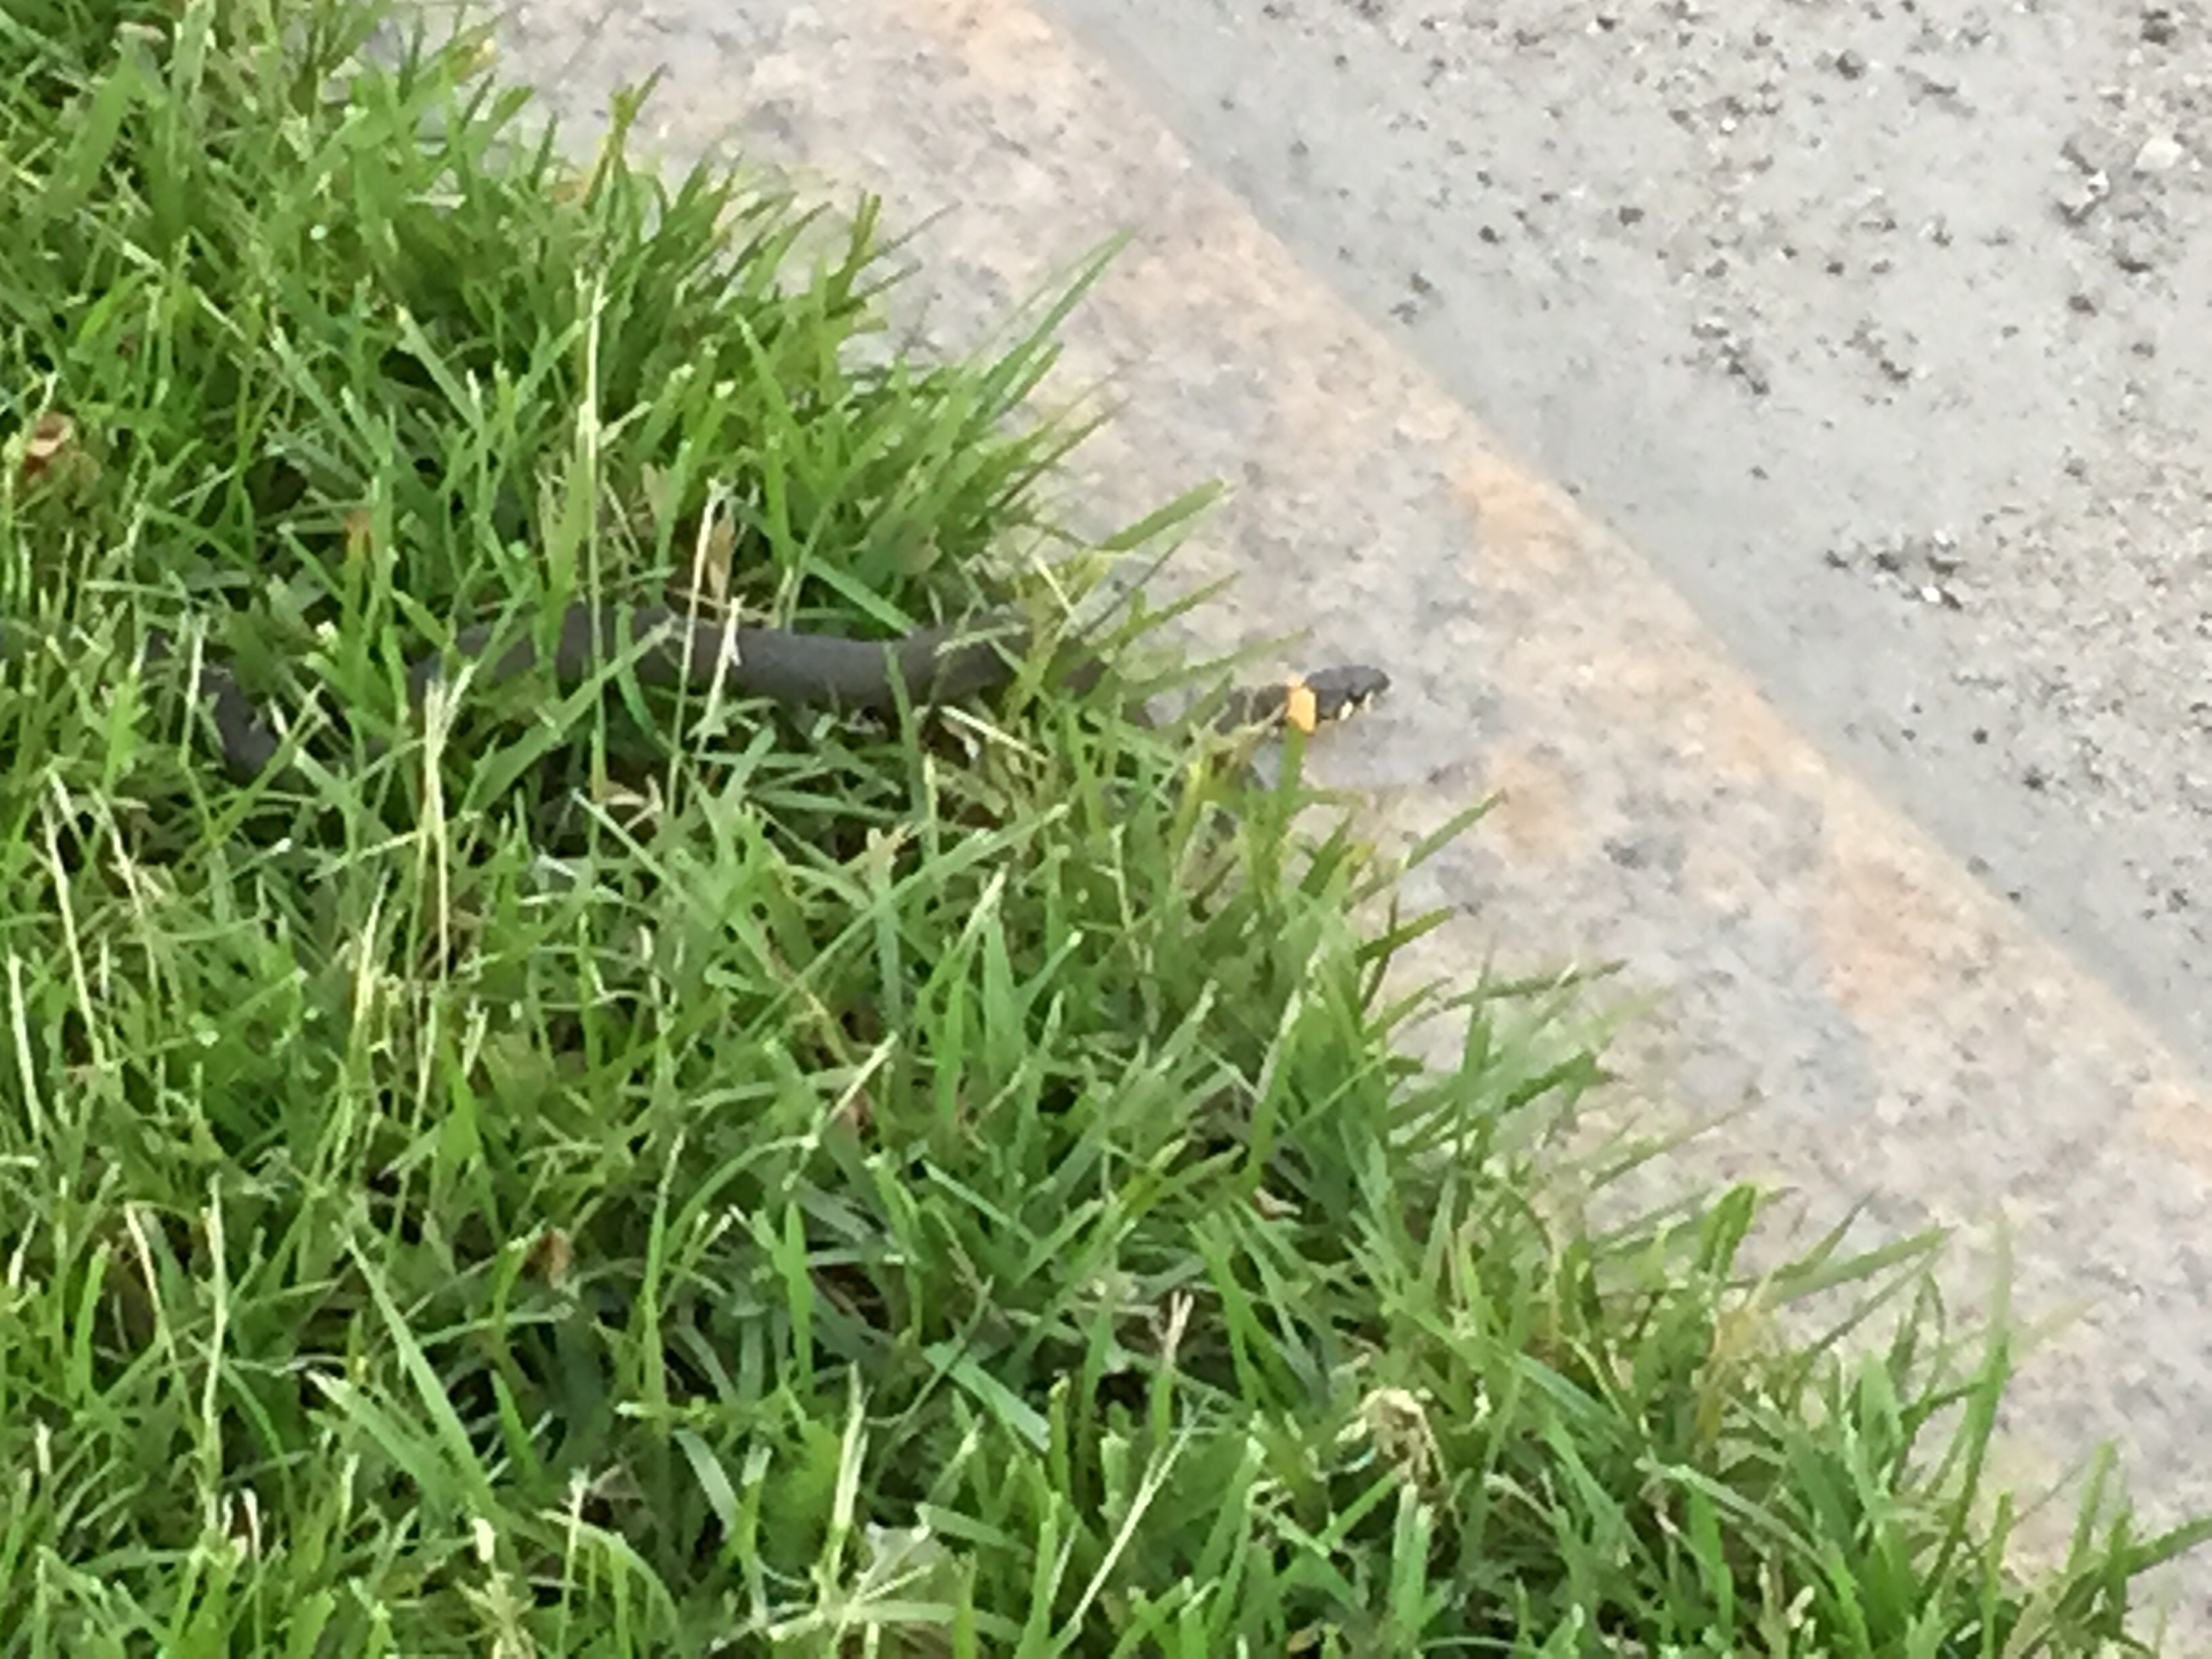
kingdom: Animalia
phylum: Chordata
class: Squamata
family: Colubridae
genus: Natrix
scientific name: Natrix natrix
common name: Grass snake
